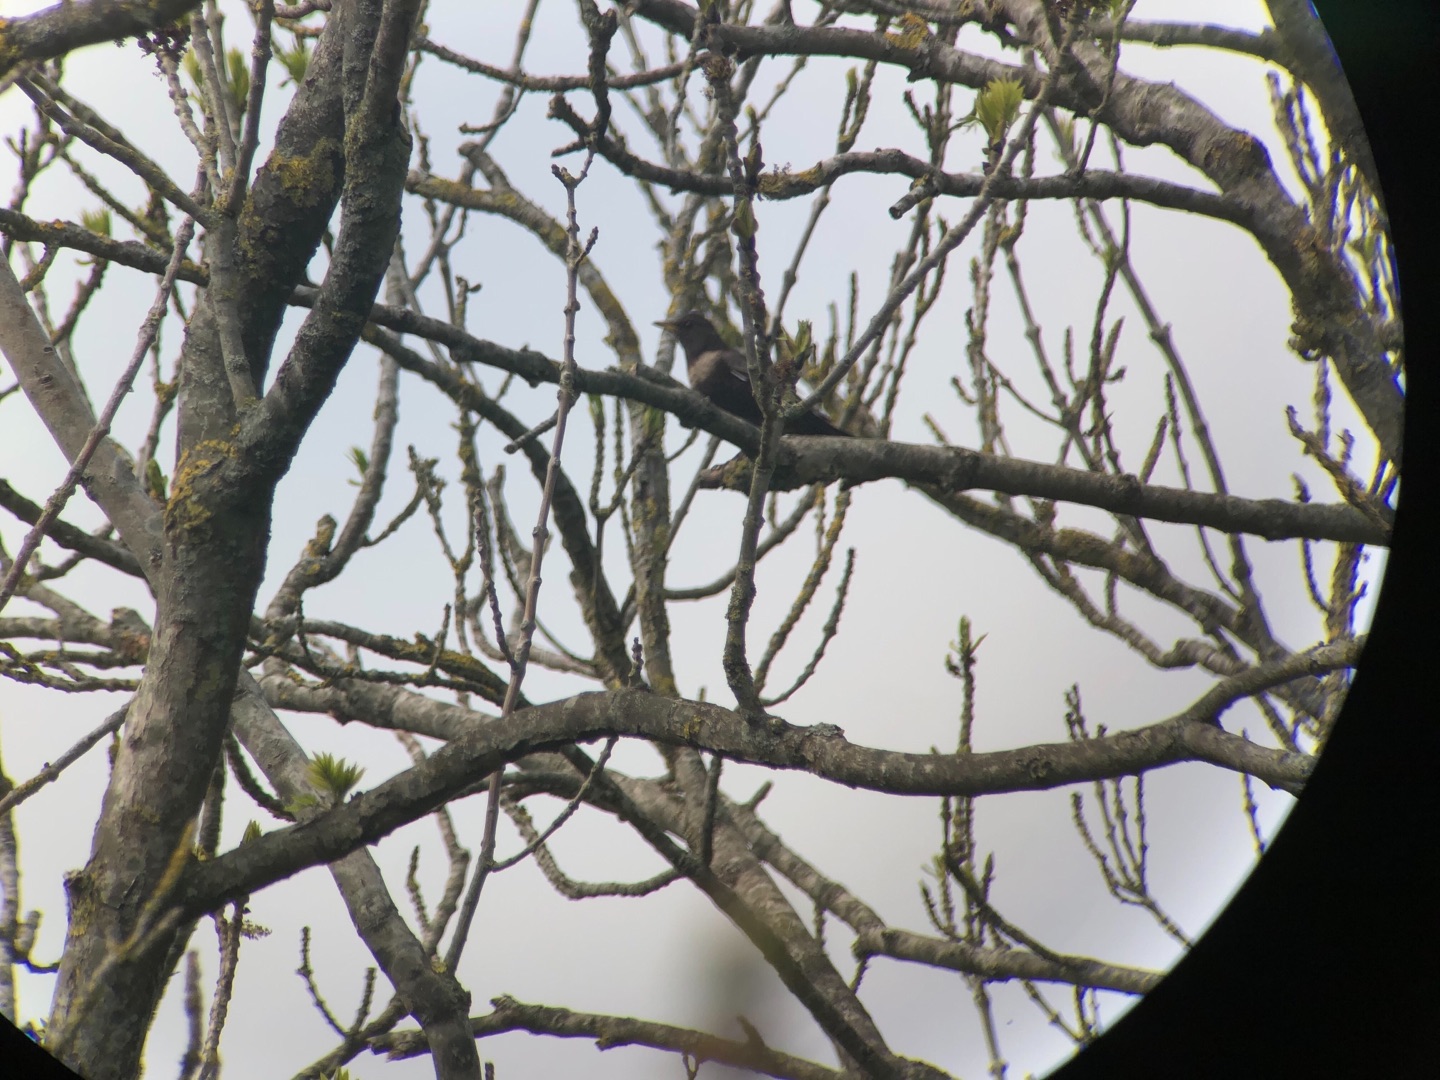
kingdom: Animalia
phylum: Chordata
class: Aves
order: Passeriformes
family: Turdidae
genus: Turdus
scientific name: Turdus torquatus
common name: Ringdrossel
